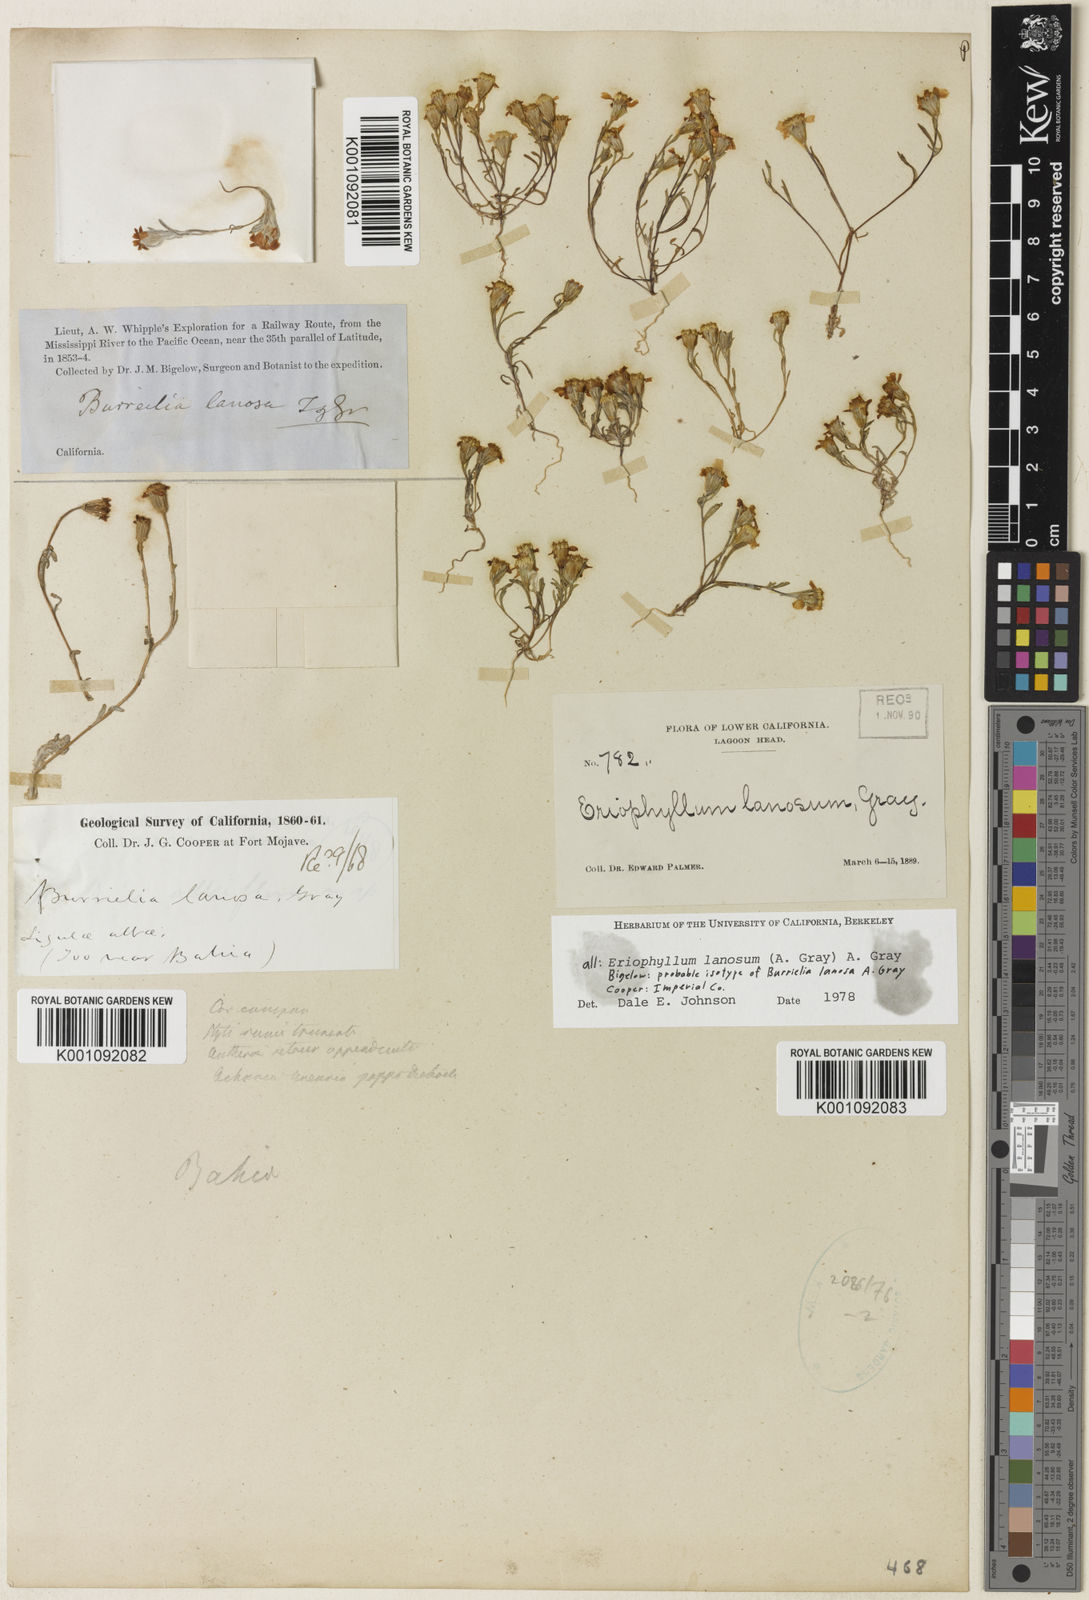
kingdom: Plantae
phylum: Tracheophyta
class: Magnoliopsida
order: Asterales
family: Asteraceae
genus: Eriophyllum
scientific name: Eriophyllum lanosum
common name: White easter-bonnets
